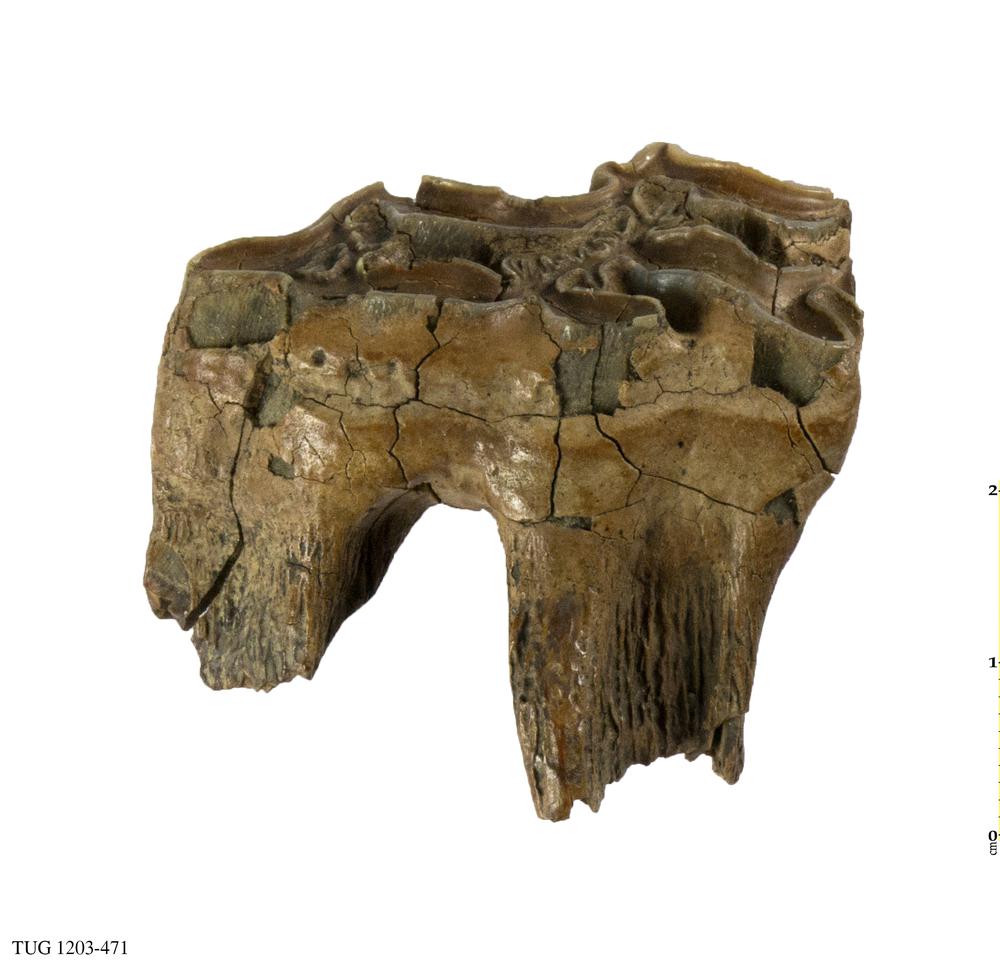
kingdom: Animalia
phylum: Chordata
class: Mammalia
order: Perissodactyla
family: Equidae
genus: Equus
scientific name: Equus
